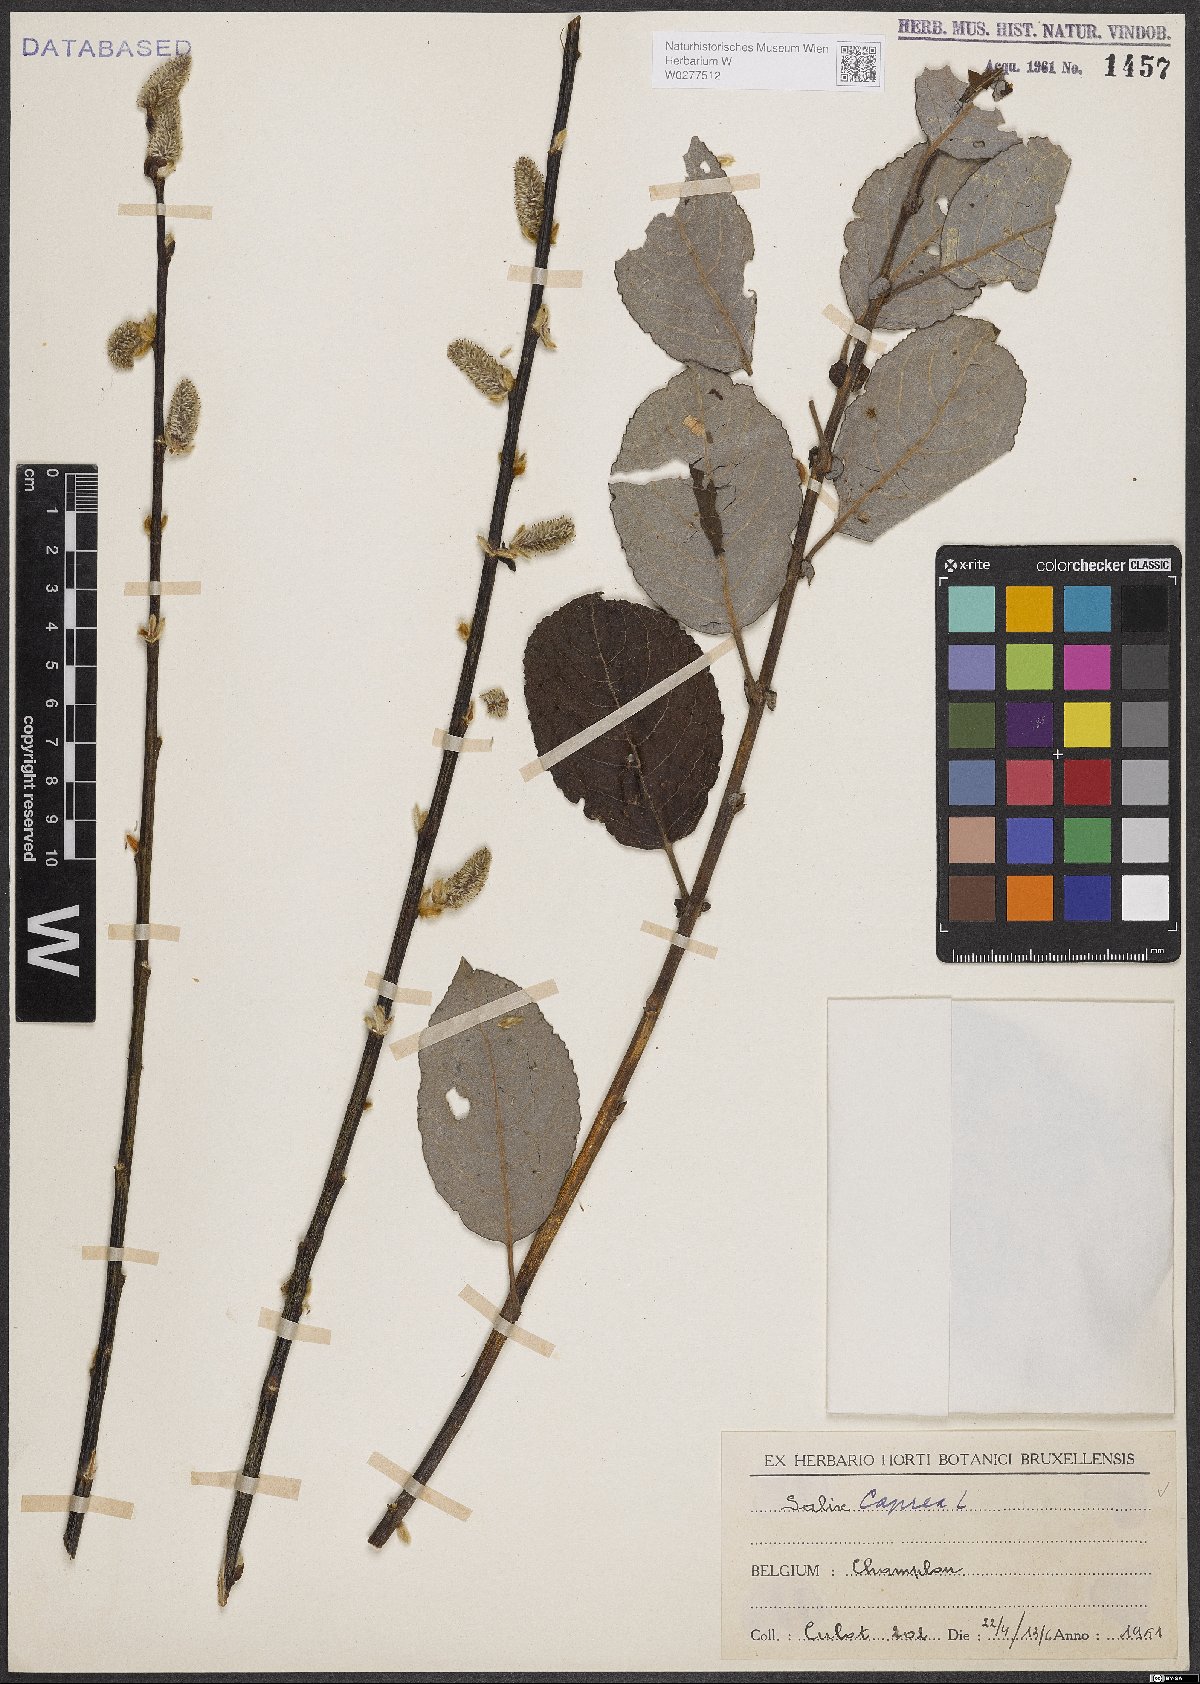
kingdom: Plantae
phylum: Tracheophyta
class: Magnoliopsida
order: Malpighiales
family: Salicaceae
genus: Salix
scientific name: Salix caprea
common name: Goat willow
